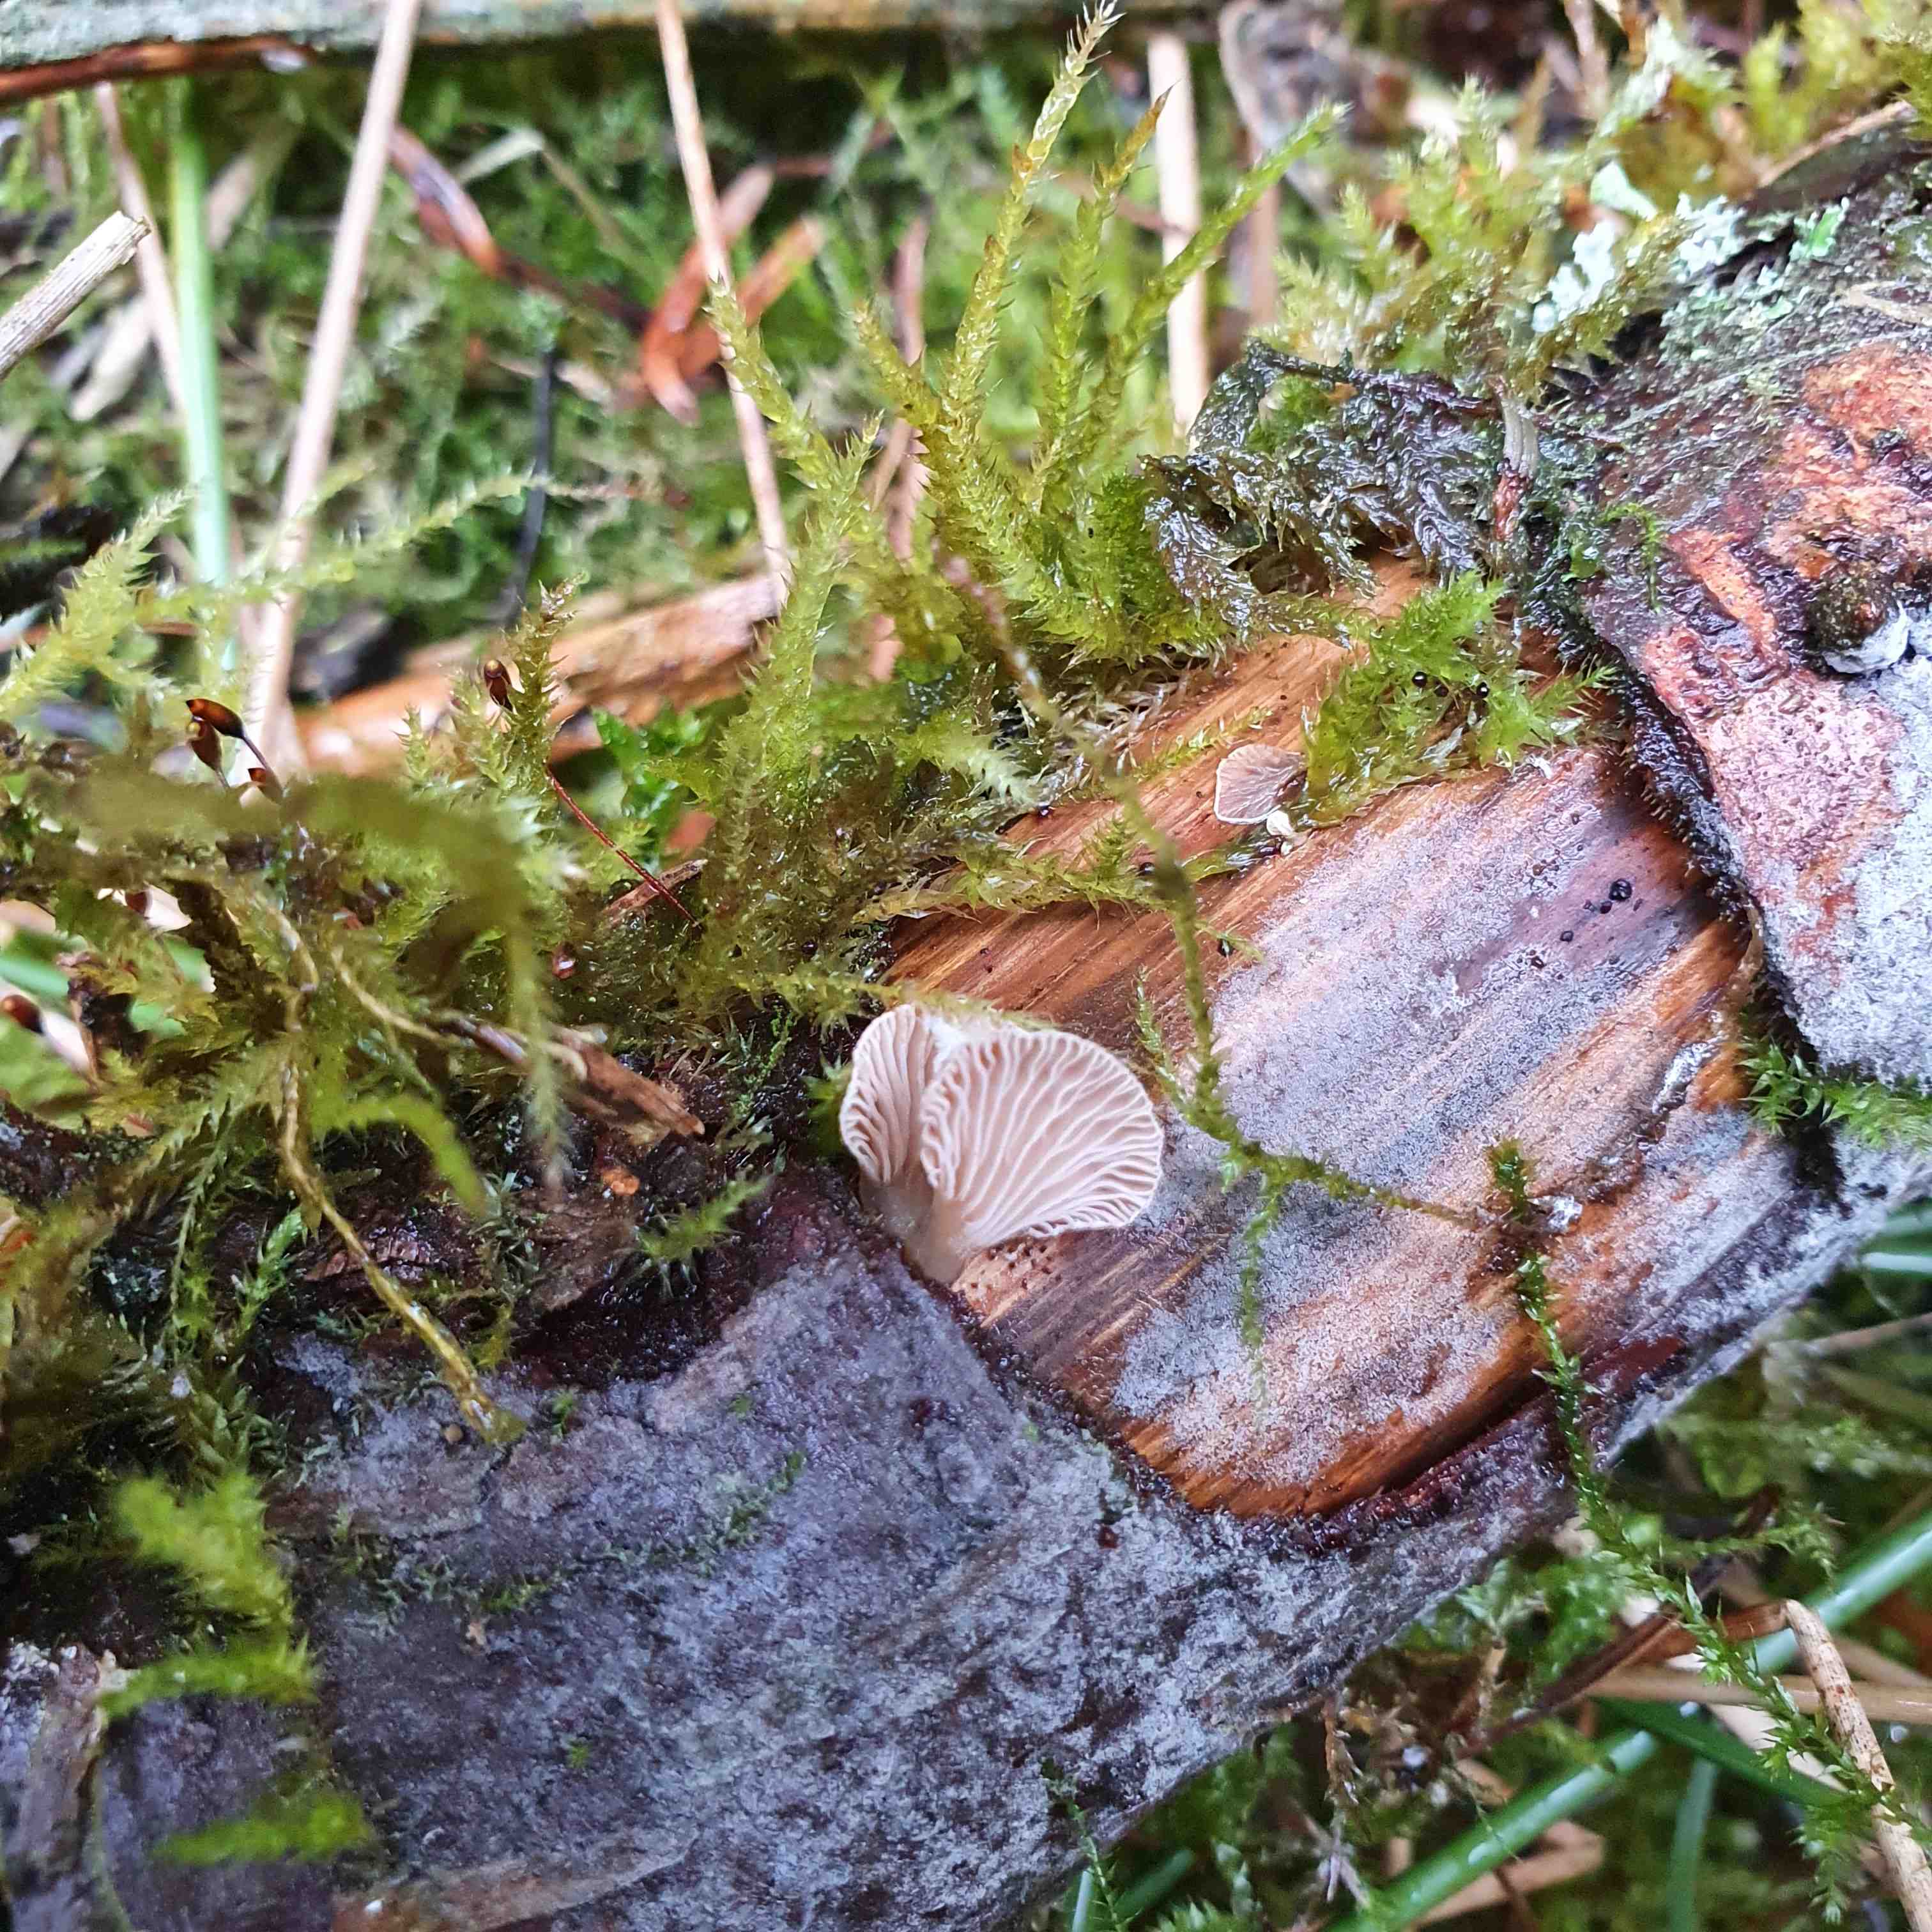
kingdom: Fungi
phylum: Basidiomycota
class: Agaricomycetes
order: Agaricales
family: Mycenaceae
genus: Panellus
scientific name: Panellus mitis
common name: mild epaulethat
